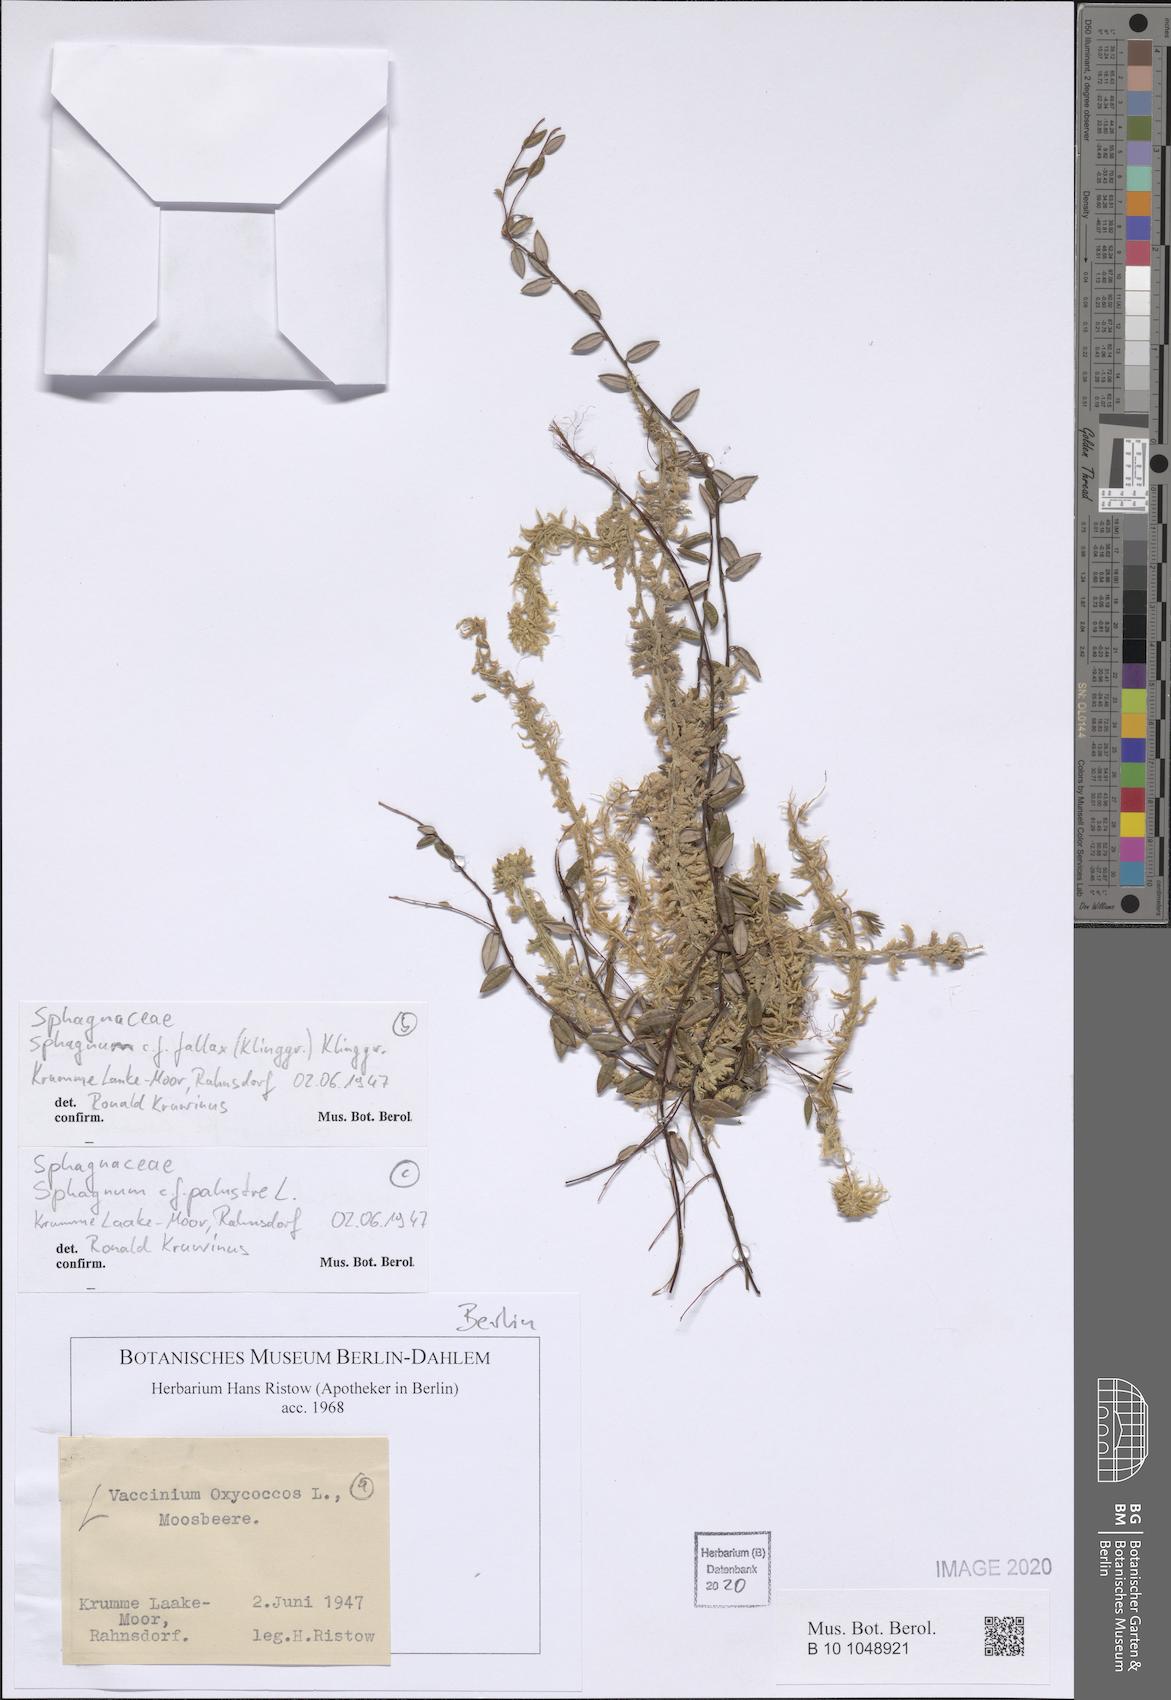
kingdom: Plantae
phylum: Tracheophyta
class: Magnoliopsida
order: Ericales
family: Ericaceae
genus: Vaccinium
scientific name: Vaccinium oxycoccos
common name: Cranberry
